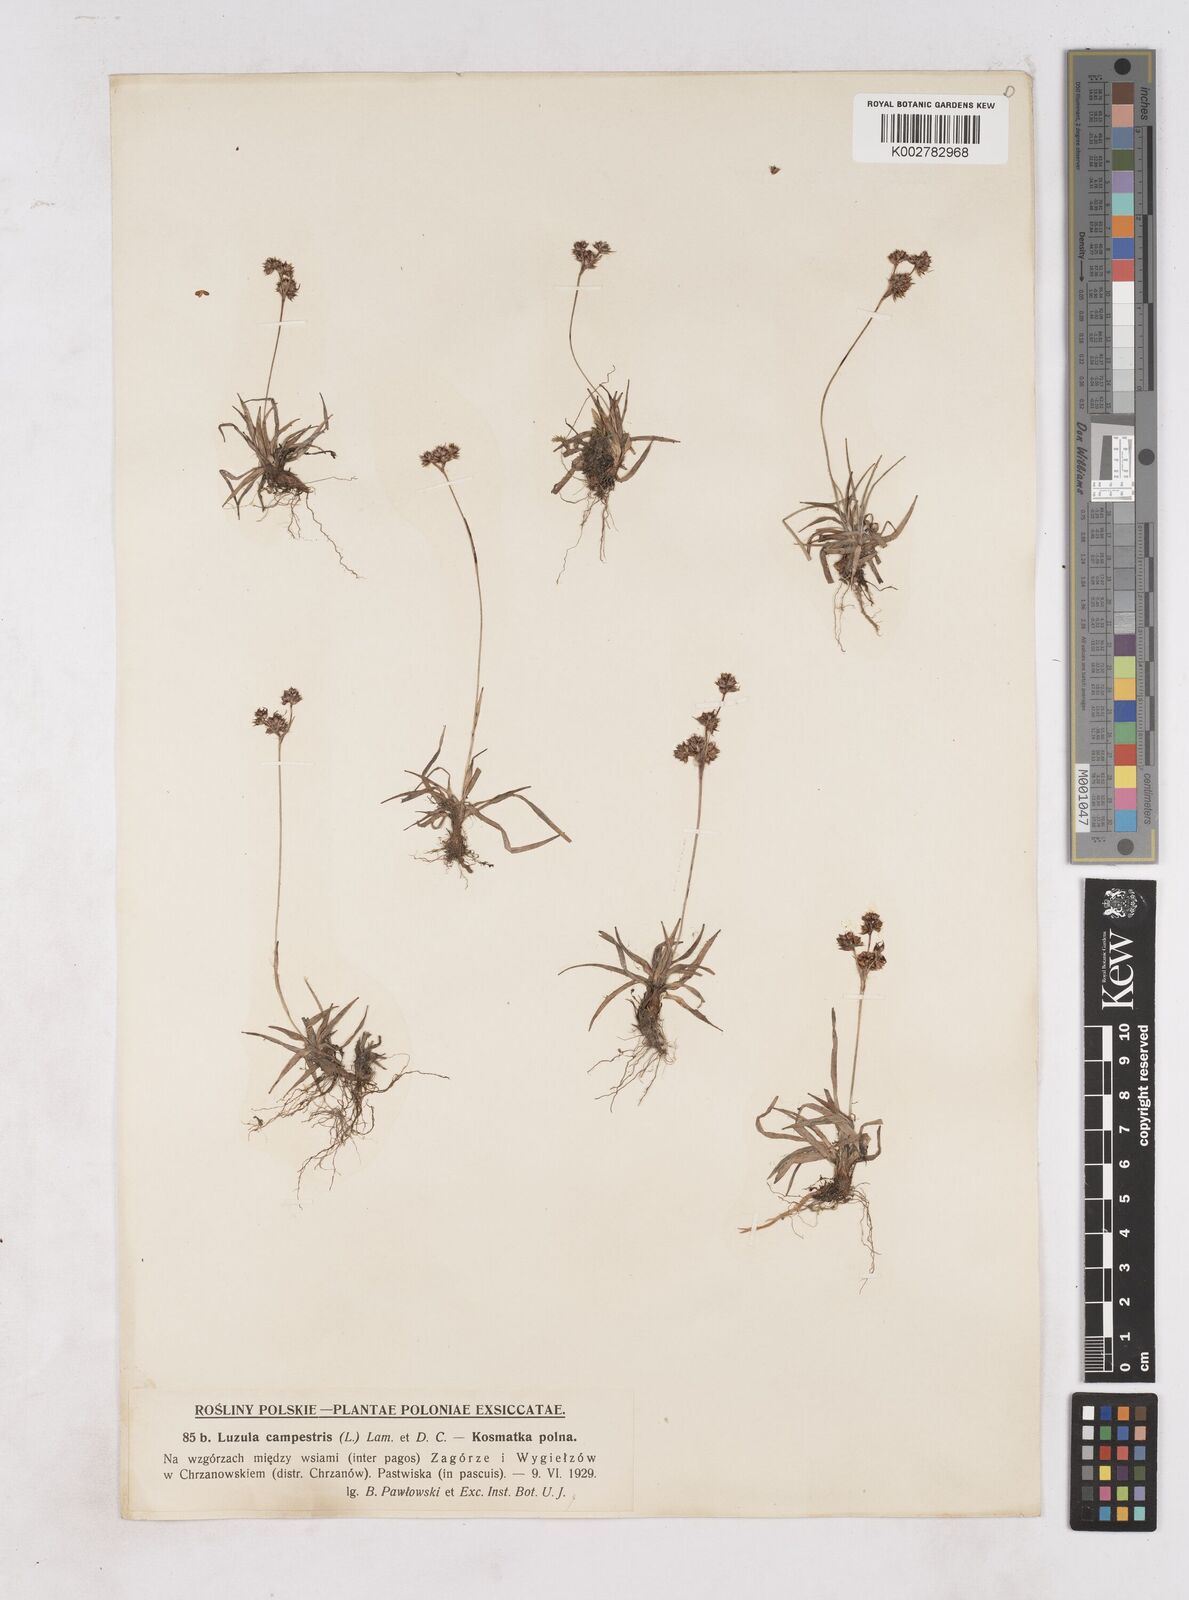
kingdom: Plantae
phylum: Tracheophyta
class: Liliopsida
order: Poales
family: Juncaceae
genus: Luzula
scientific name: Luzula campestris
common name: Field wood-rush
